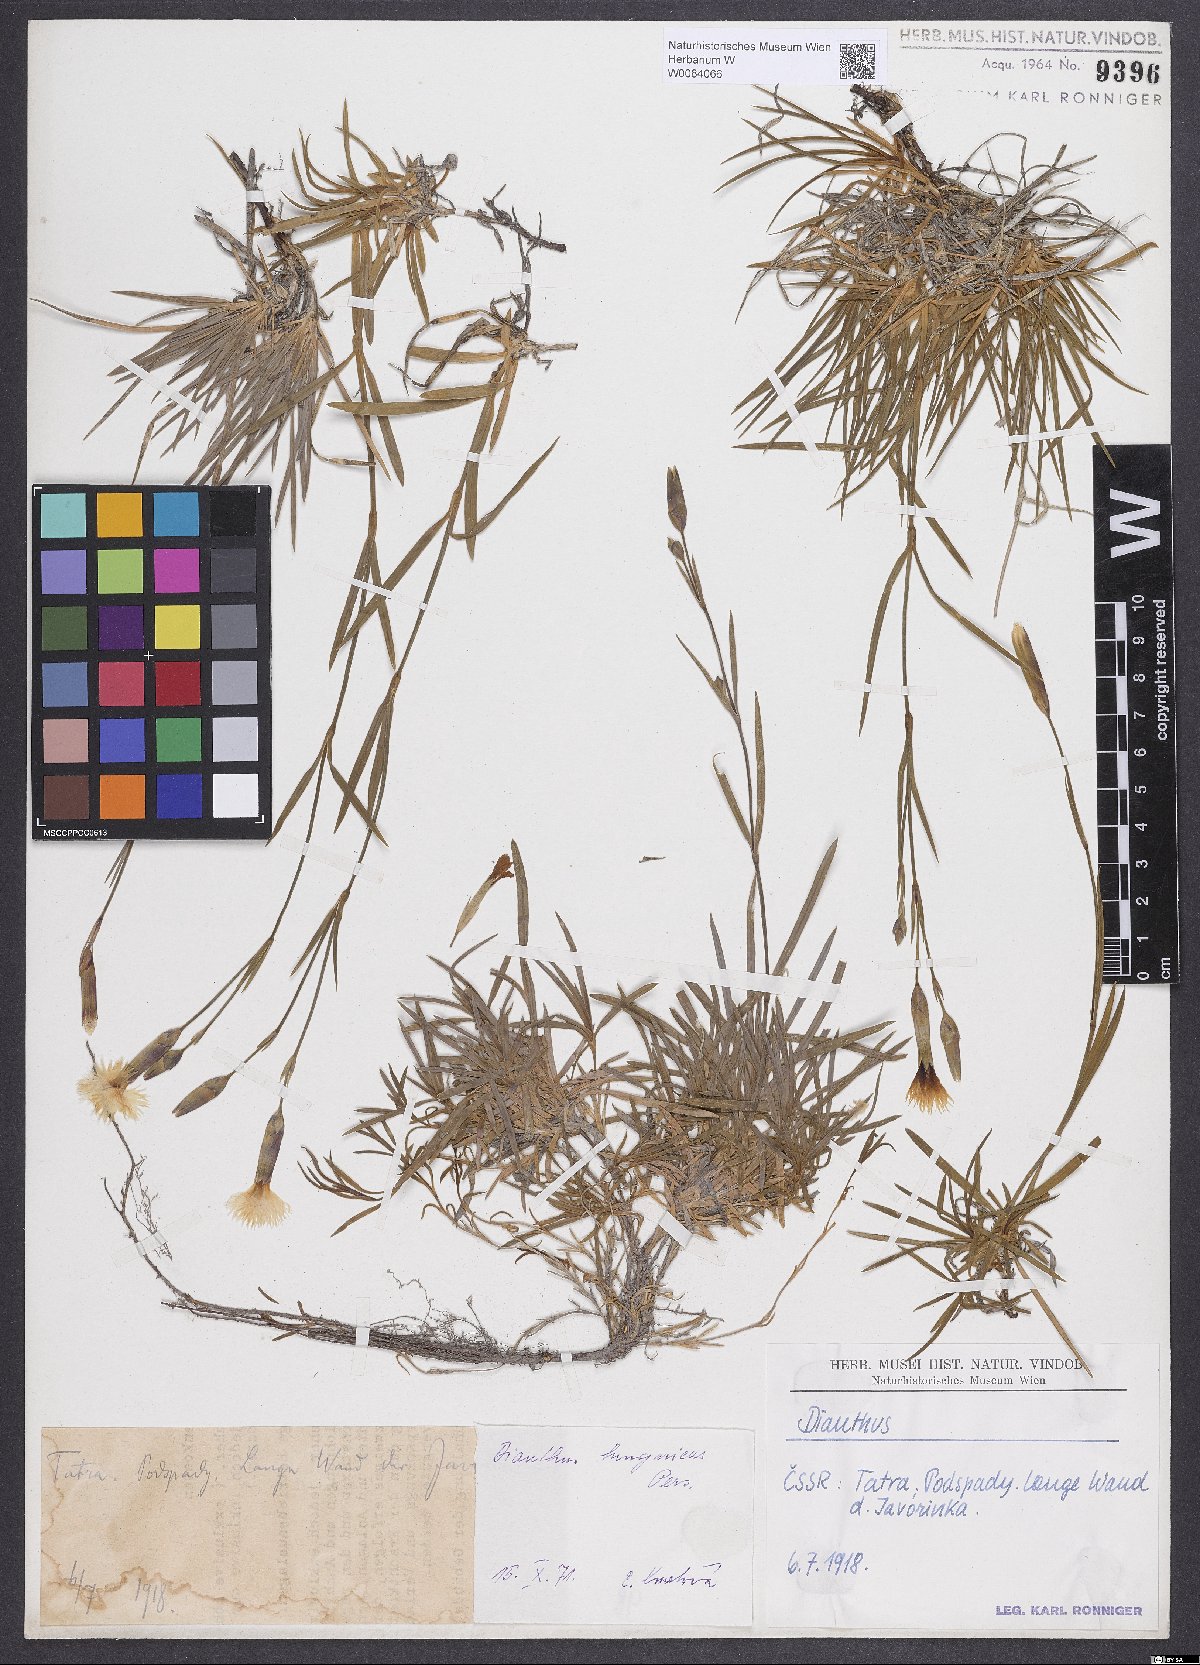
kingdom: Plantae
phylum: Tracheophyta
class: Magnoliopsida
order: Caryophyllales
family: Caryophyllaceae
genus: Dianthus
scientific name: Dianthus plumarius
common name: Pink
